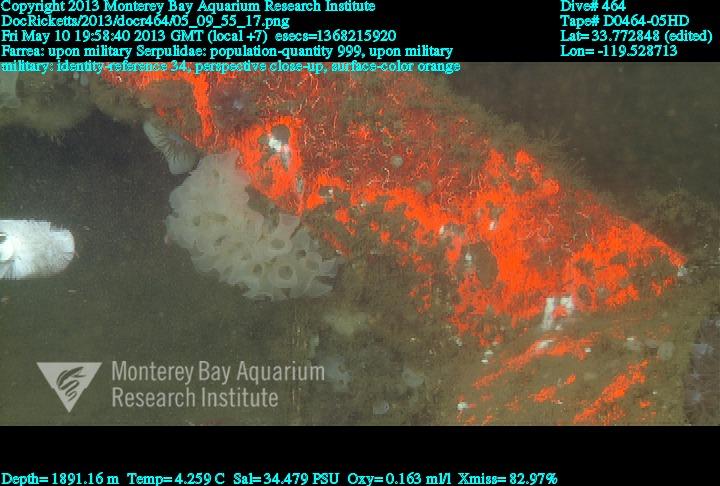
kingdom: Animalia
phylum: Porifera
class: Hexactinellida
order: Sceptrulophora
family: Farreidae
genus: Farrea
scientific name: Farrea
